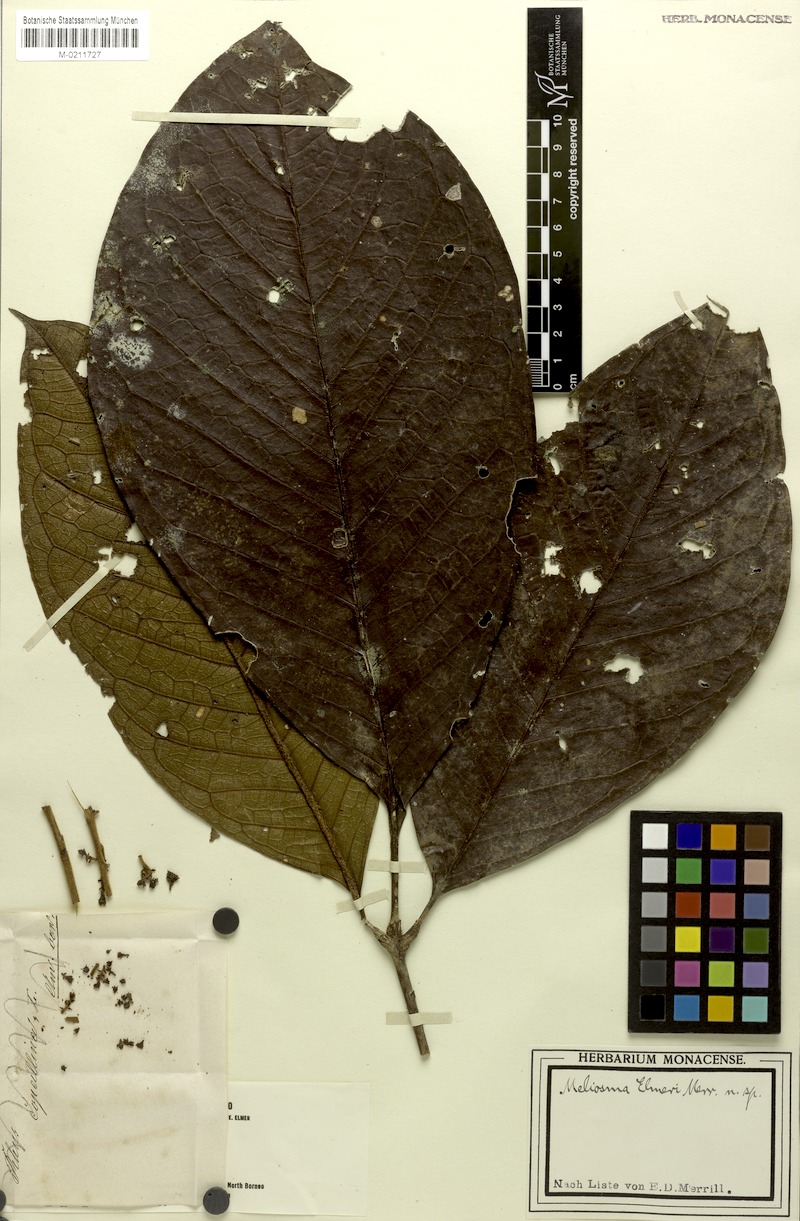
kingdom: Plantae
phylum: Tracheophyta
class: Magnoliopsida
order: Proteales
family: Sabiaceae
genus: Meliosma
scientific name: Meliosma sumatrana
